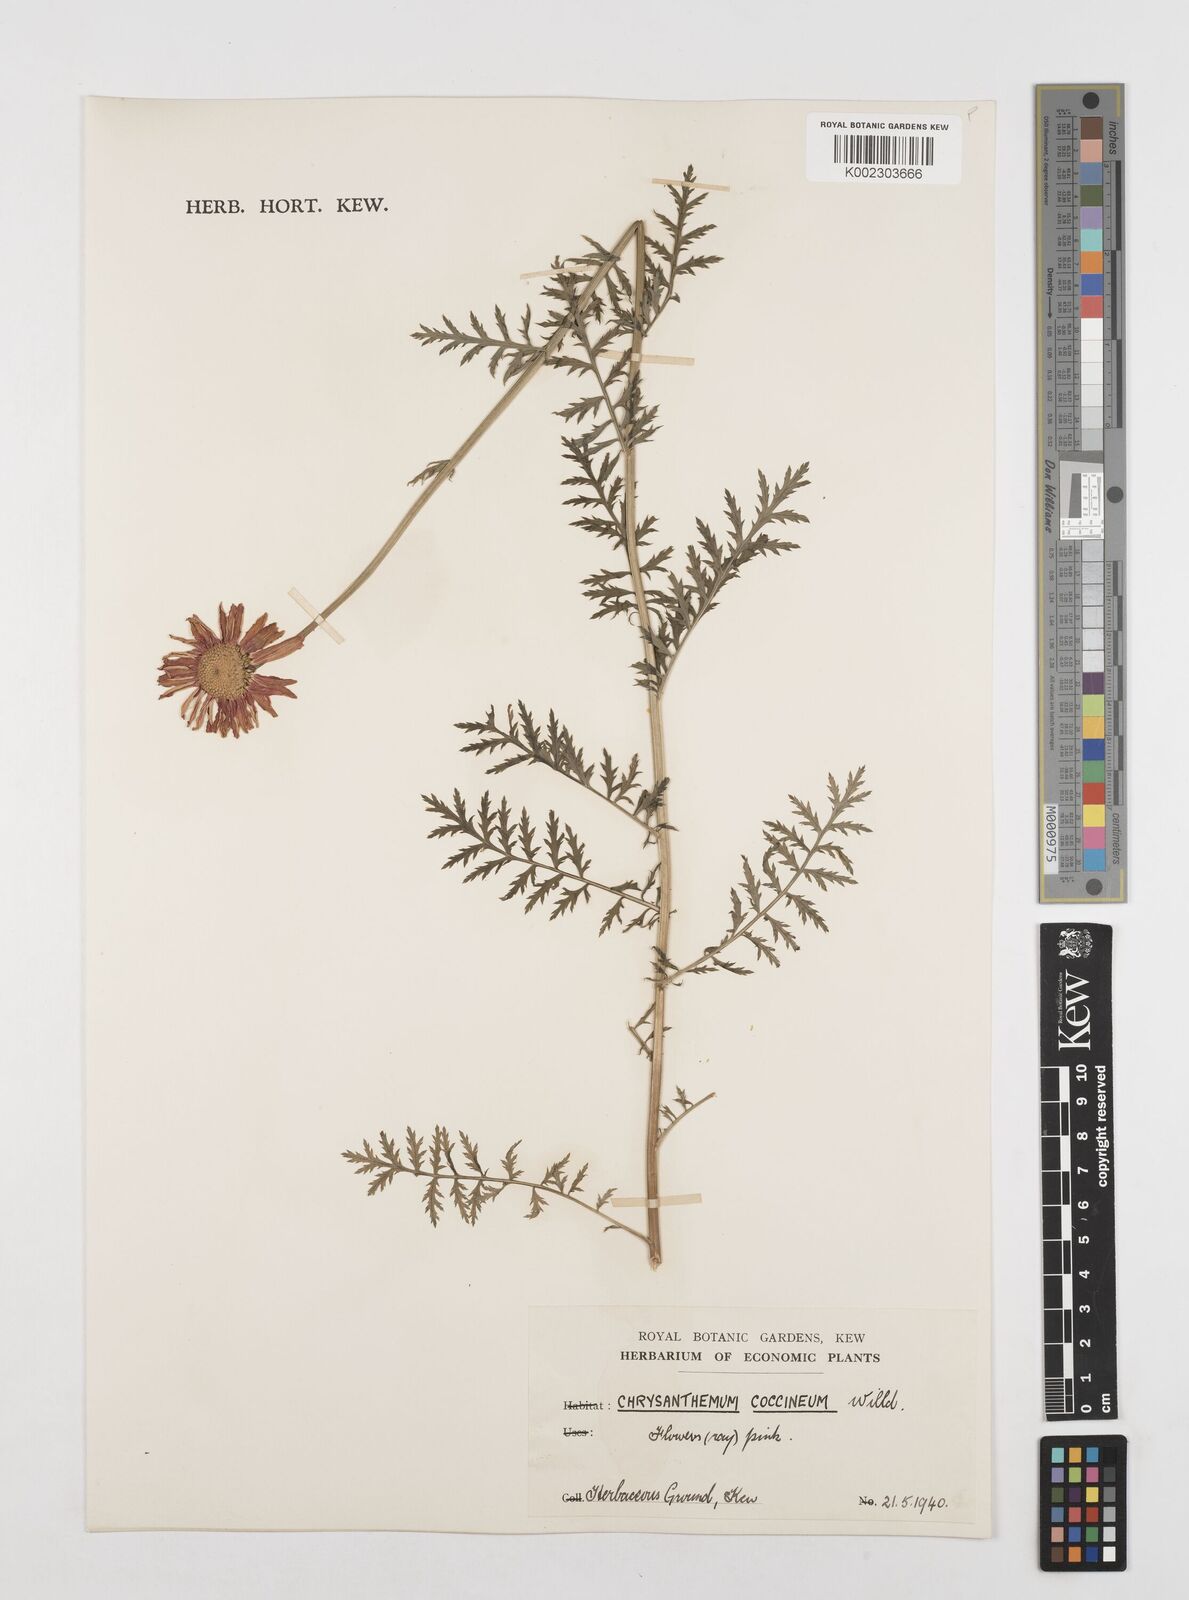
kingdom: Plantae
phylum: Tracheophyta
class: Magnoliopsida
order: Asterales
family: Asteraceae
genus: Tanacetum
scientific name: Tanacetum coccineum
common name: Pyrethum daisy
